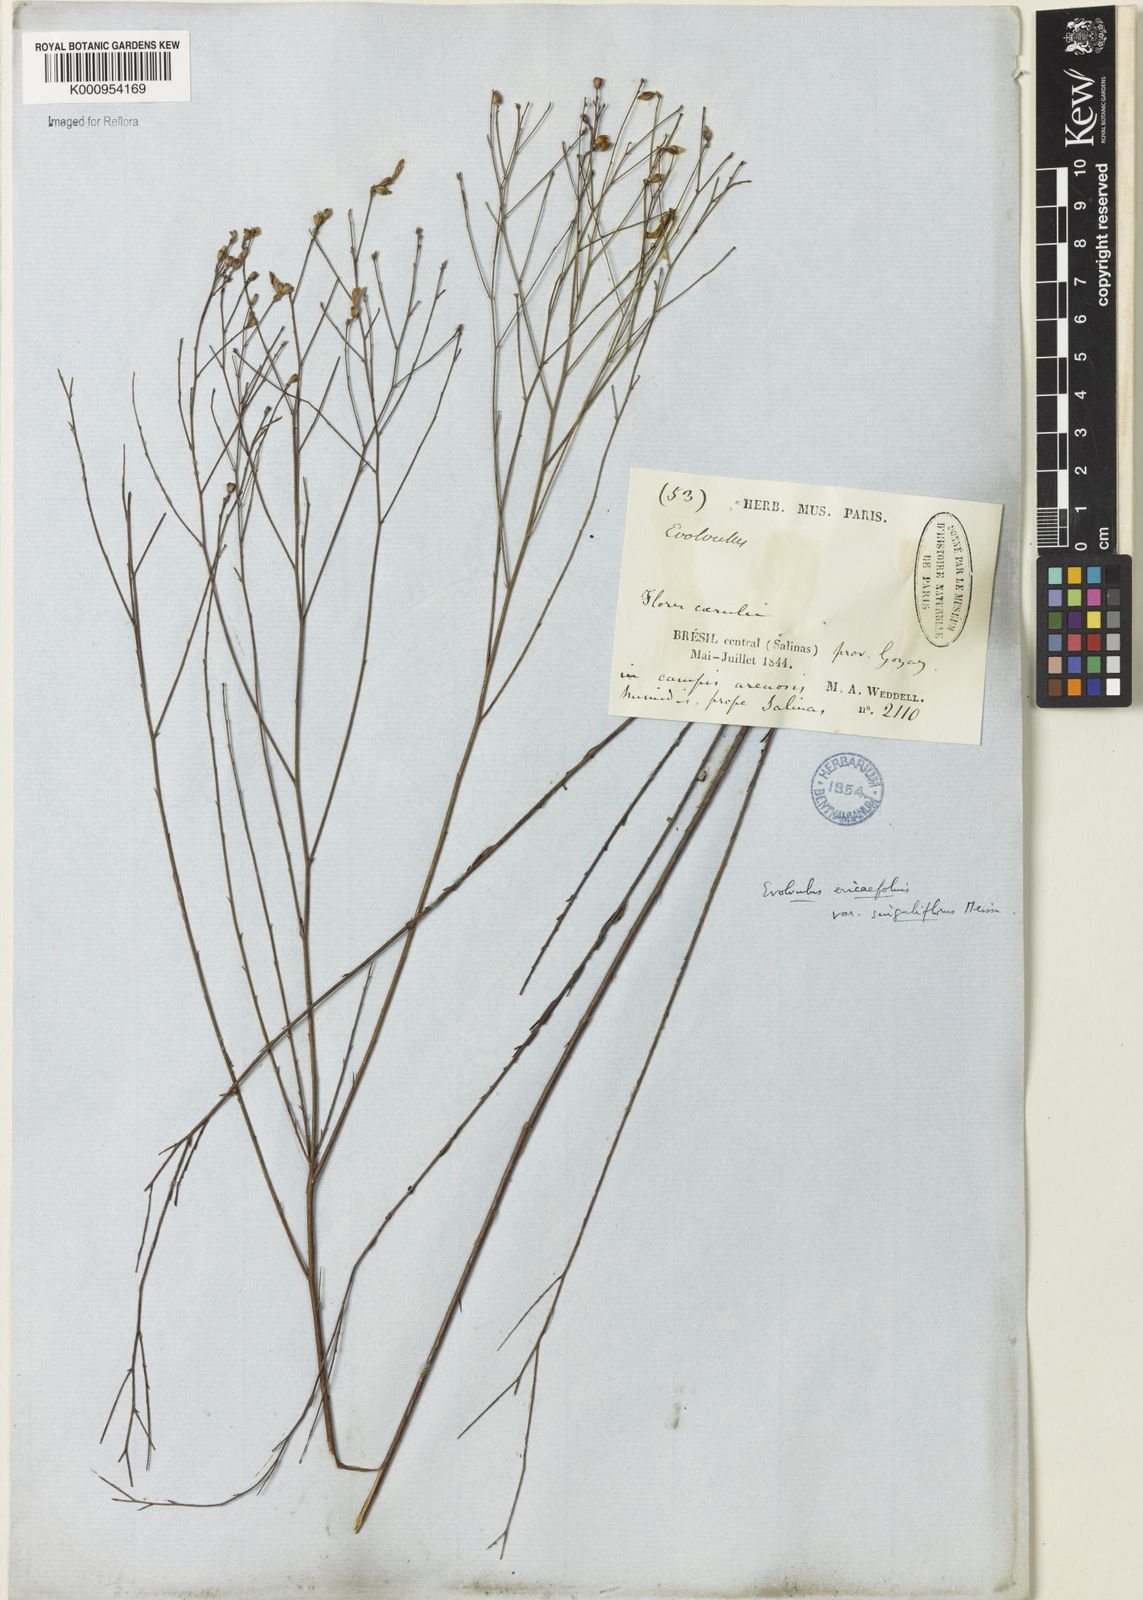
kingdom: Plantae
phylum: Tracheophyta
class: Magnoliopsida
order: Solanales
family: Convolvulaceae
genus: Evolvulus
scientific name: Evolvulus ericifolius
